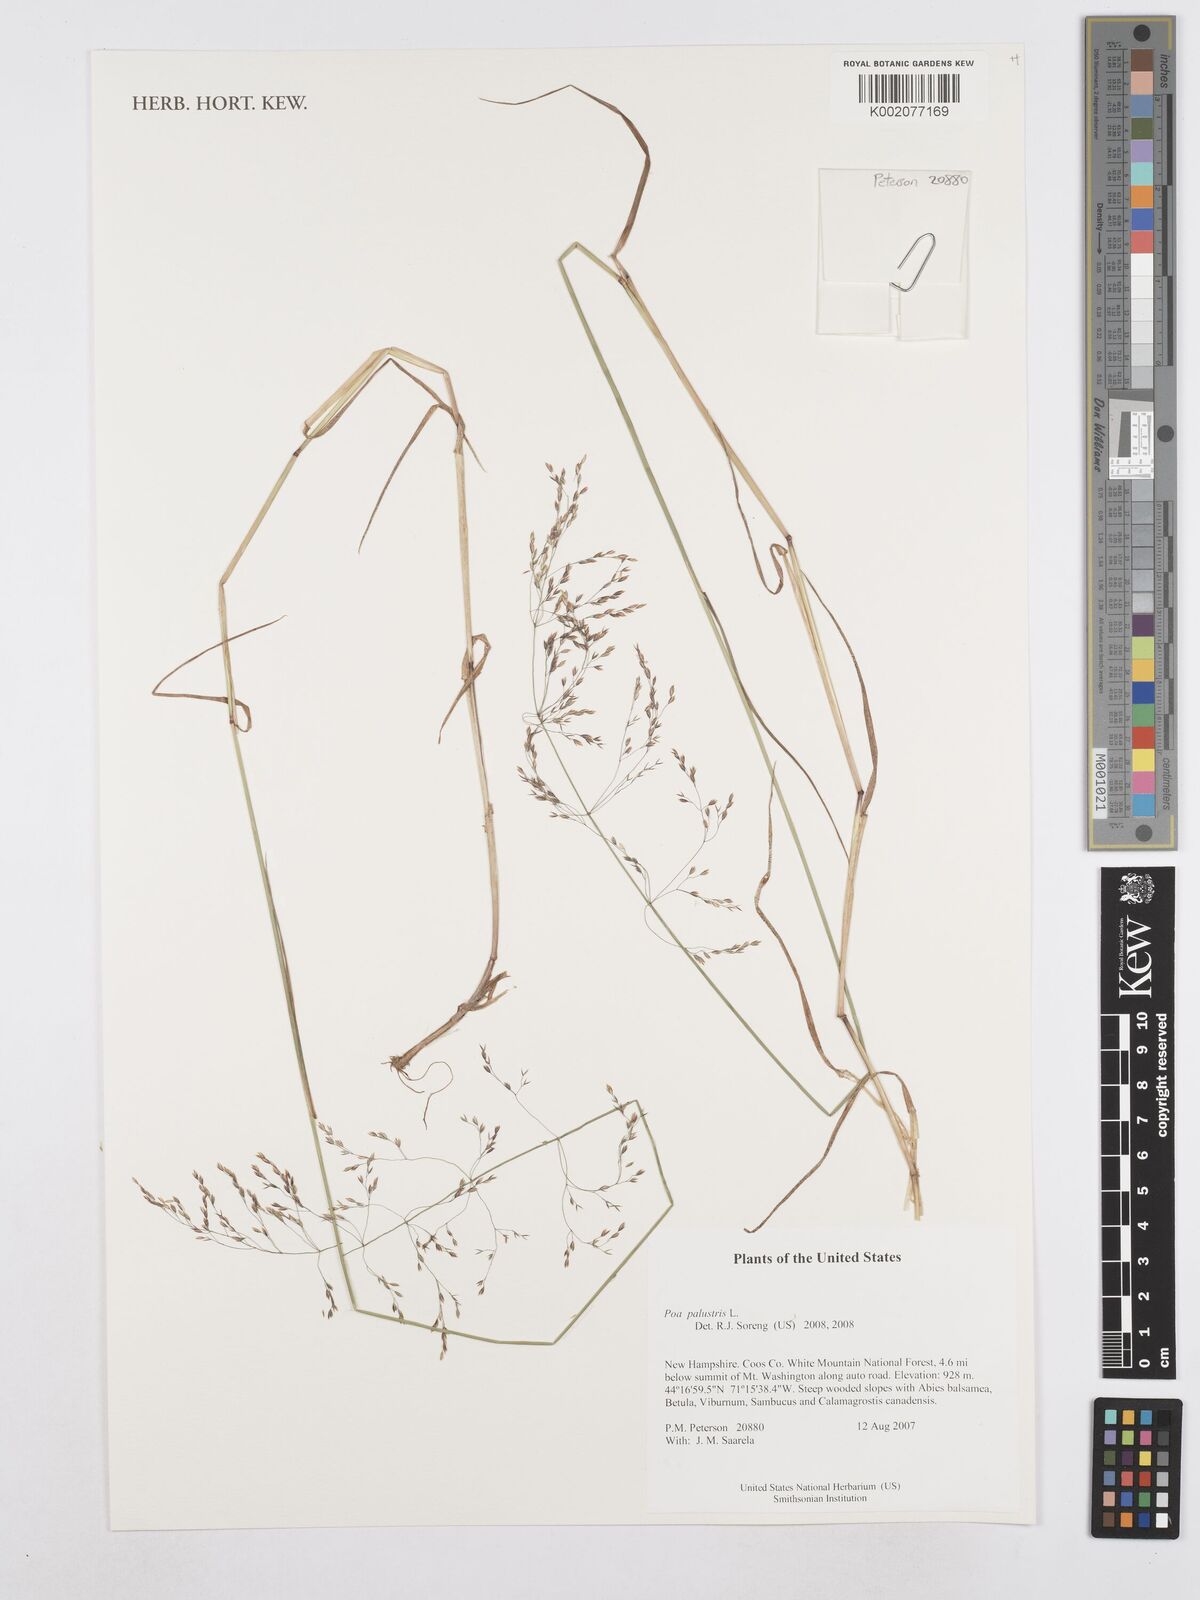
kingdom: Plantae
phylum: Tracheophyta
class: Liliopsida
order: Poales
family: Poaceae
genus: Poa
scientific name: Poa palustris
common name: Swamp meadow-grass
